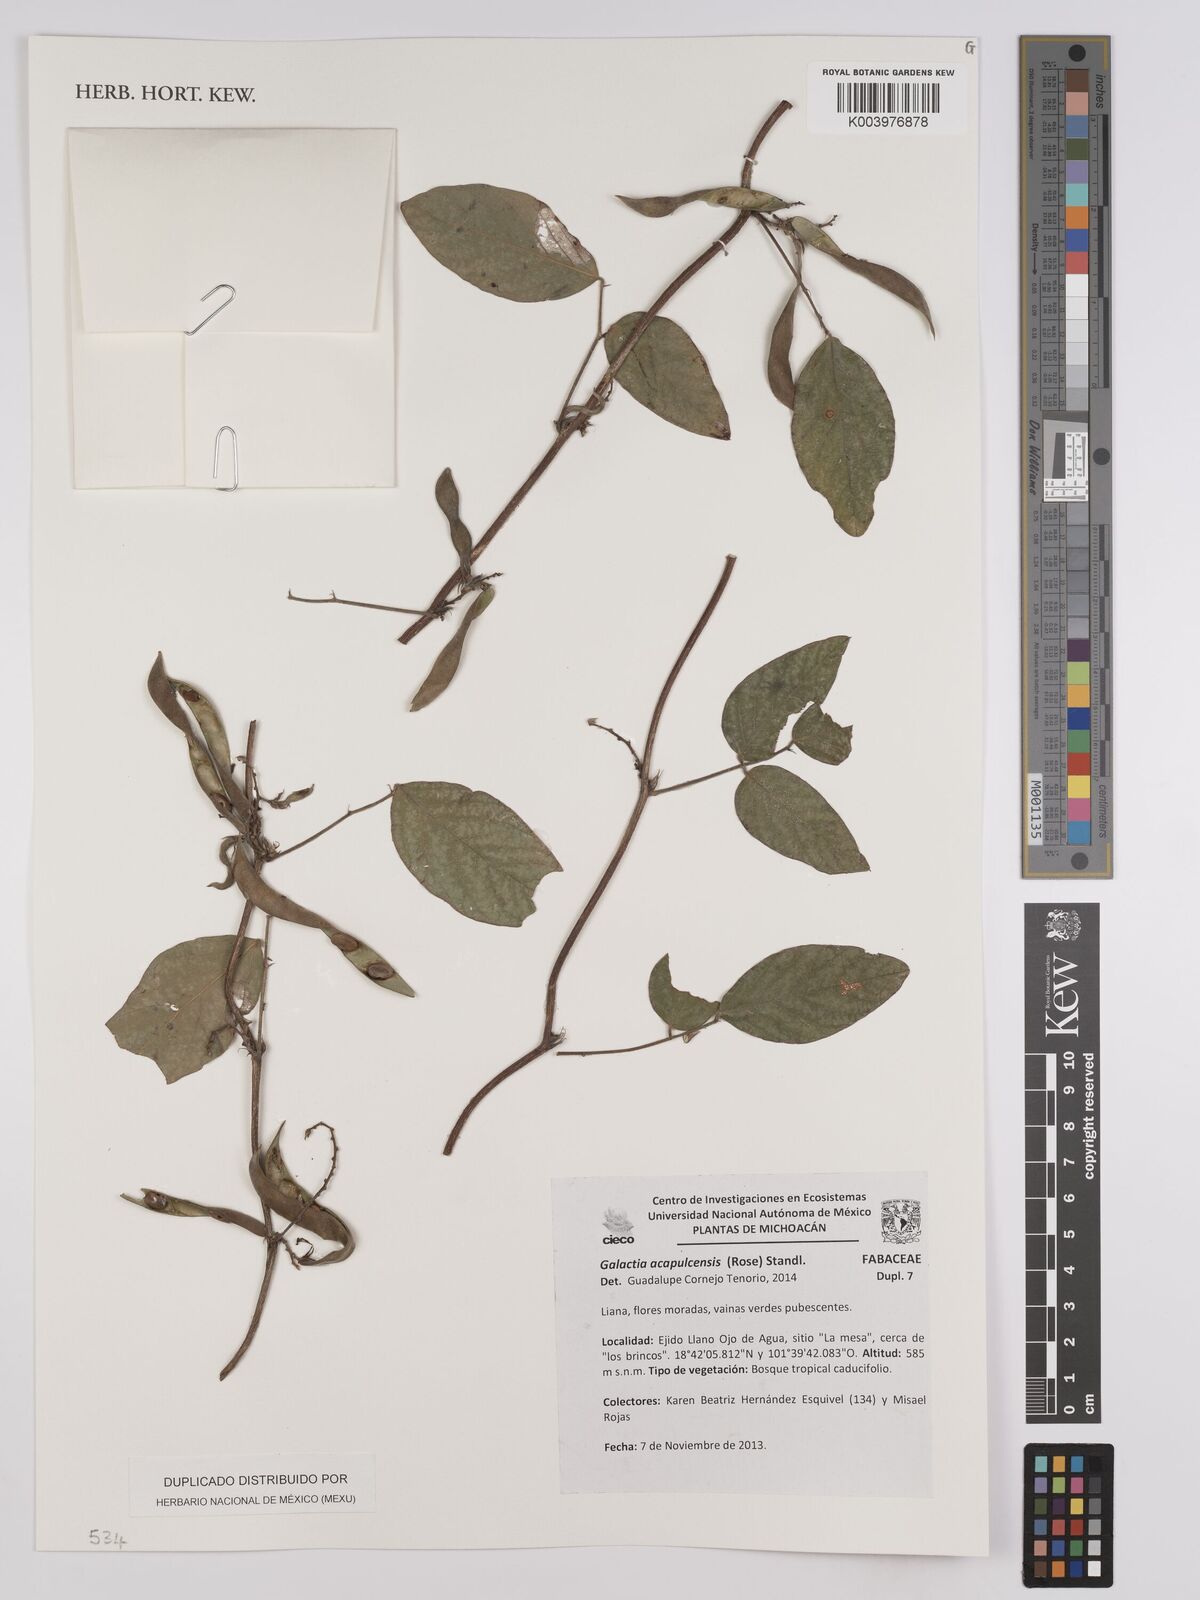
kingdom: Plantae
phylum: Tracheophyta
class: Magnoliopsida
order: Fabales
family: Fabaceae
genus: Galactia
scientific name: Galactia acapulcensis
